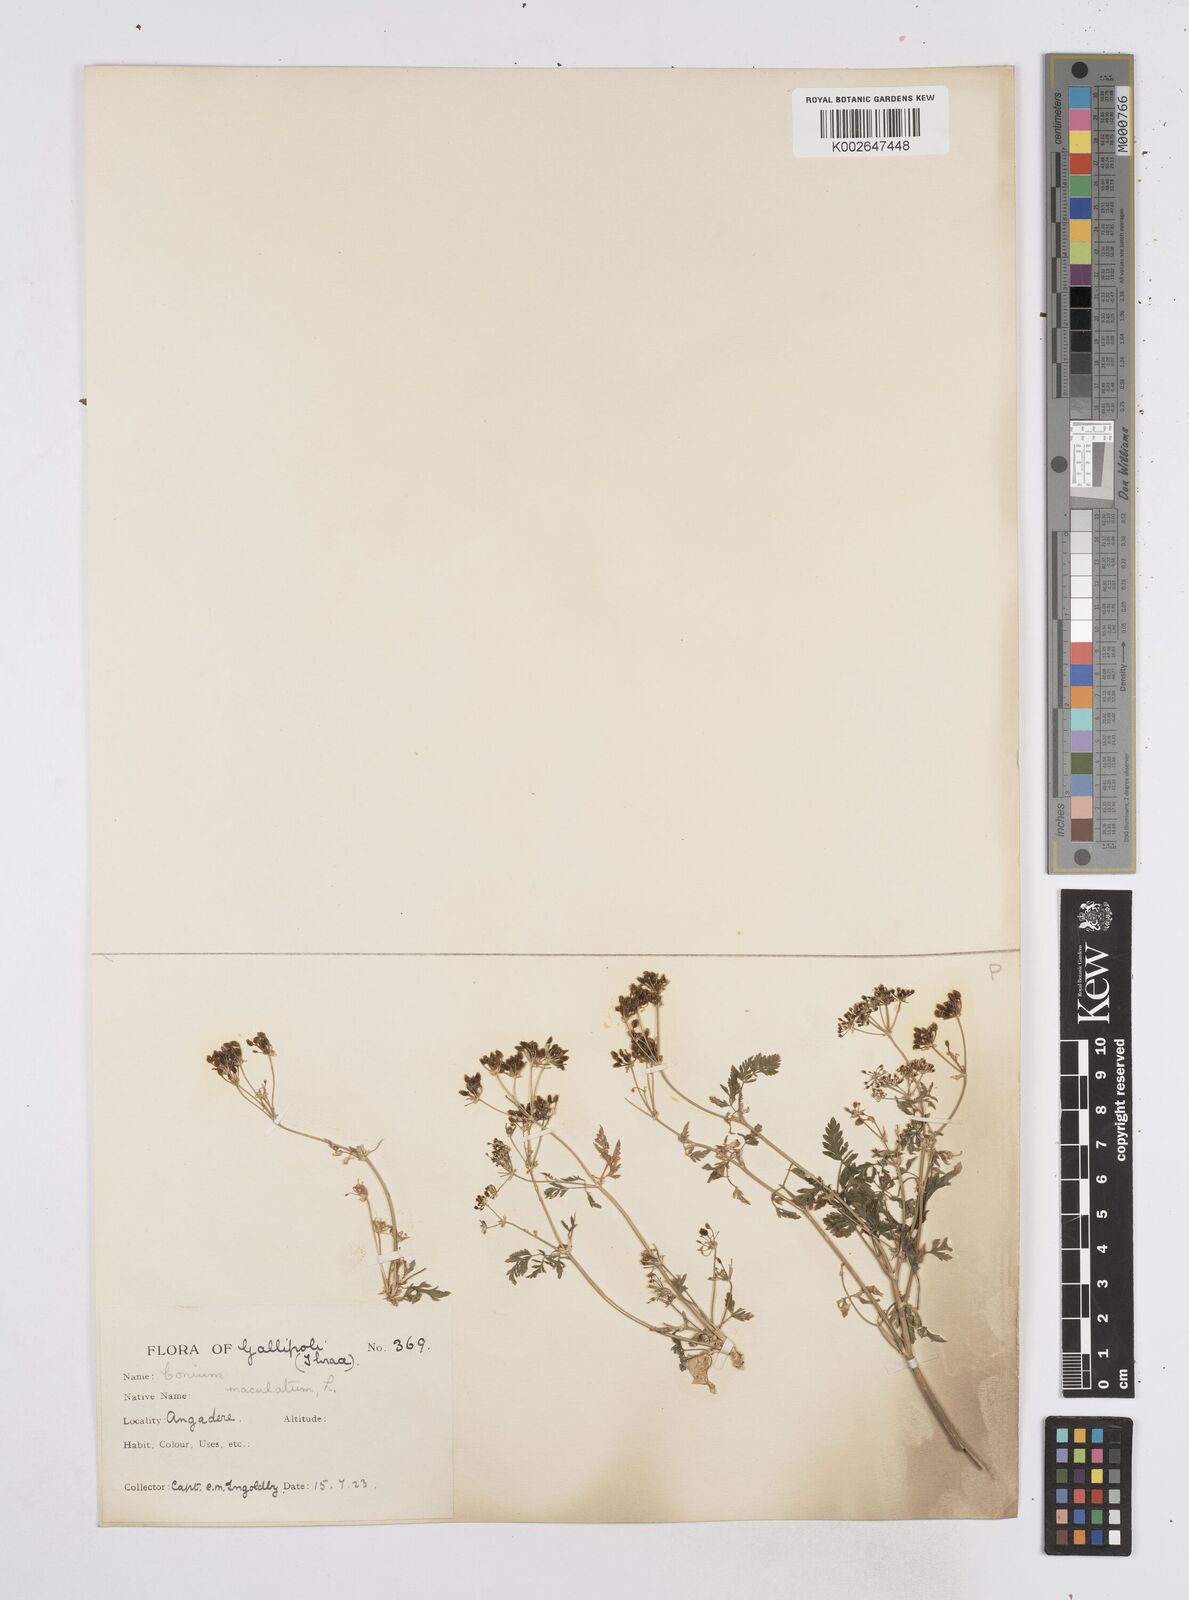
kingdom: Plantae
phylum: Tracheophyta
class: Magnoliopsida
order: Apiales
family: Apiaceae
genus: Conium
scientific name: Conium maculatum
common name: Hemlock
